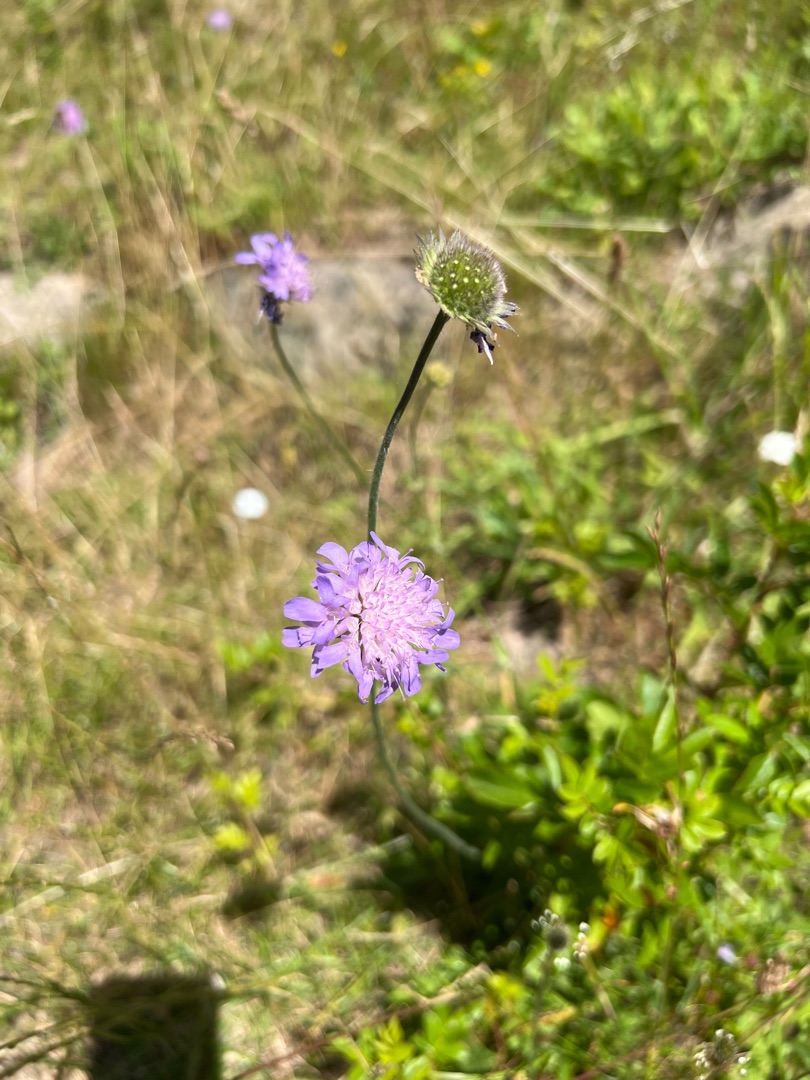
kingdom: Plantae
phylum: Tracheophyta
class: Magnoliopsida
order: Dipsacales
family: Caprifoliaceae
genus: Knautia
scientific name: Knautia arvensis
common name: Blåhat
